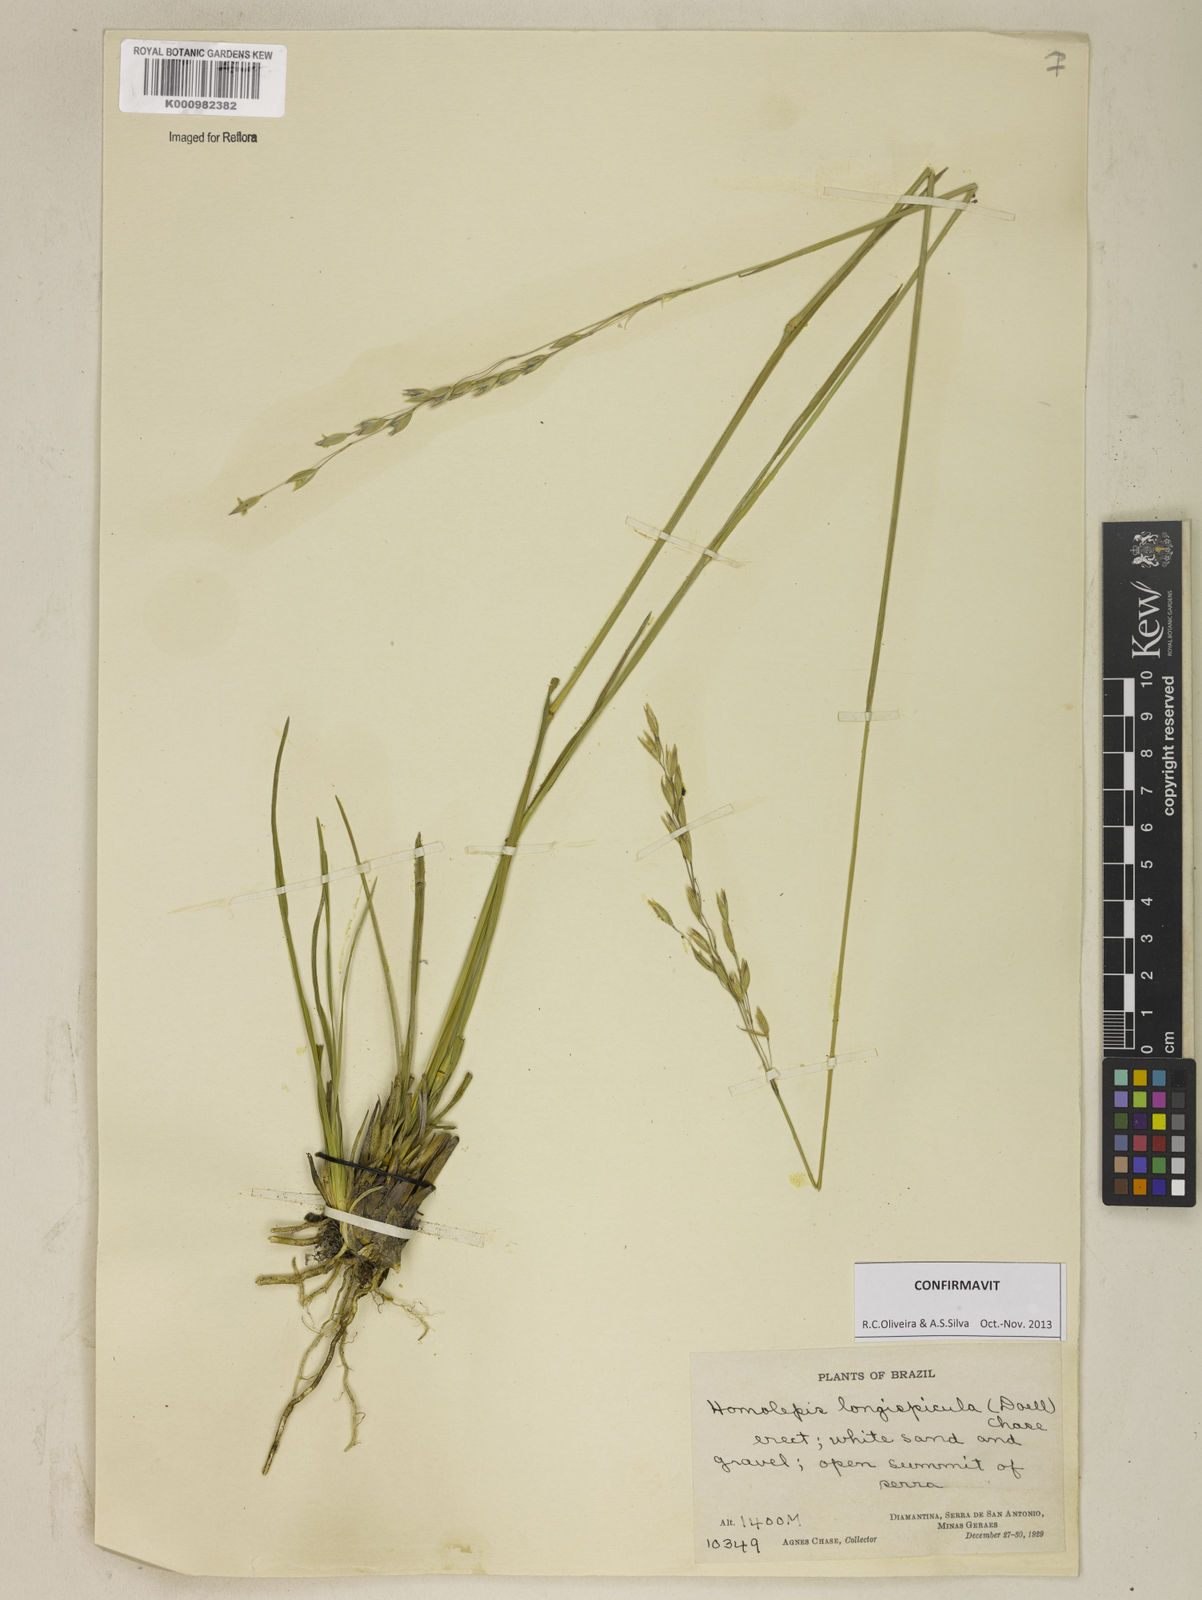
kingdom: Plantae
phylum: Tracheophyta
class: Liliopsida
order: Poales
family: Poaceae
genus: Homolepis
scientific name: Homolepis
